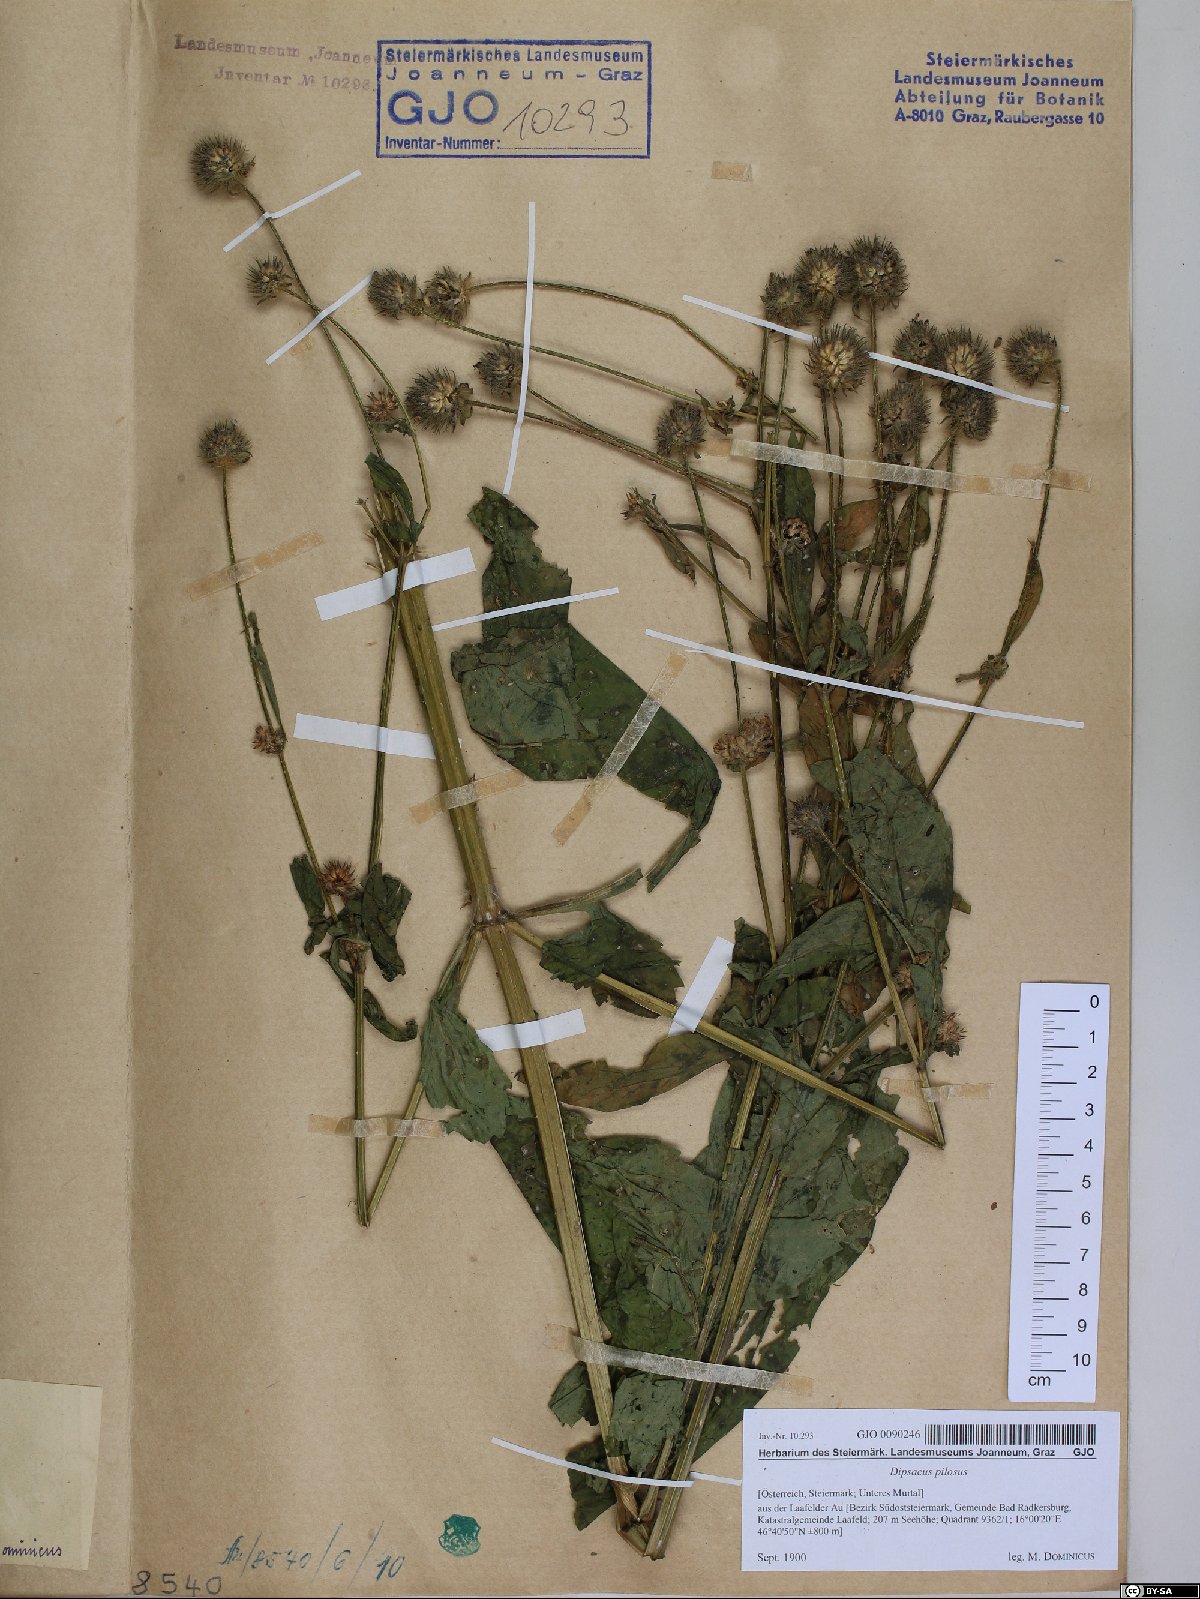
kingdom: Plantae
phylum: Tracheophyta
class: Magnoliopsida
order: Dipsacales
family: Caprifoliaceae
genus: Dipsacus
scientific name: Dipsacus pilosus
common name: Small teasel
